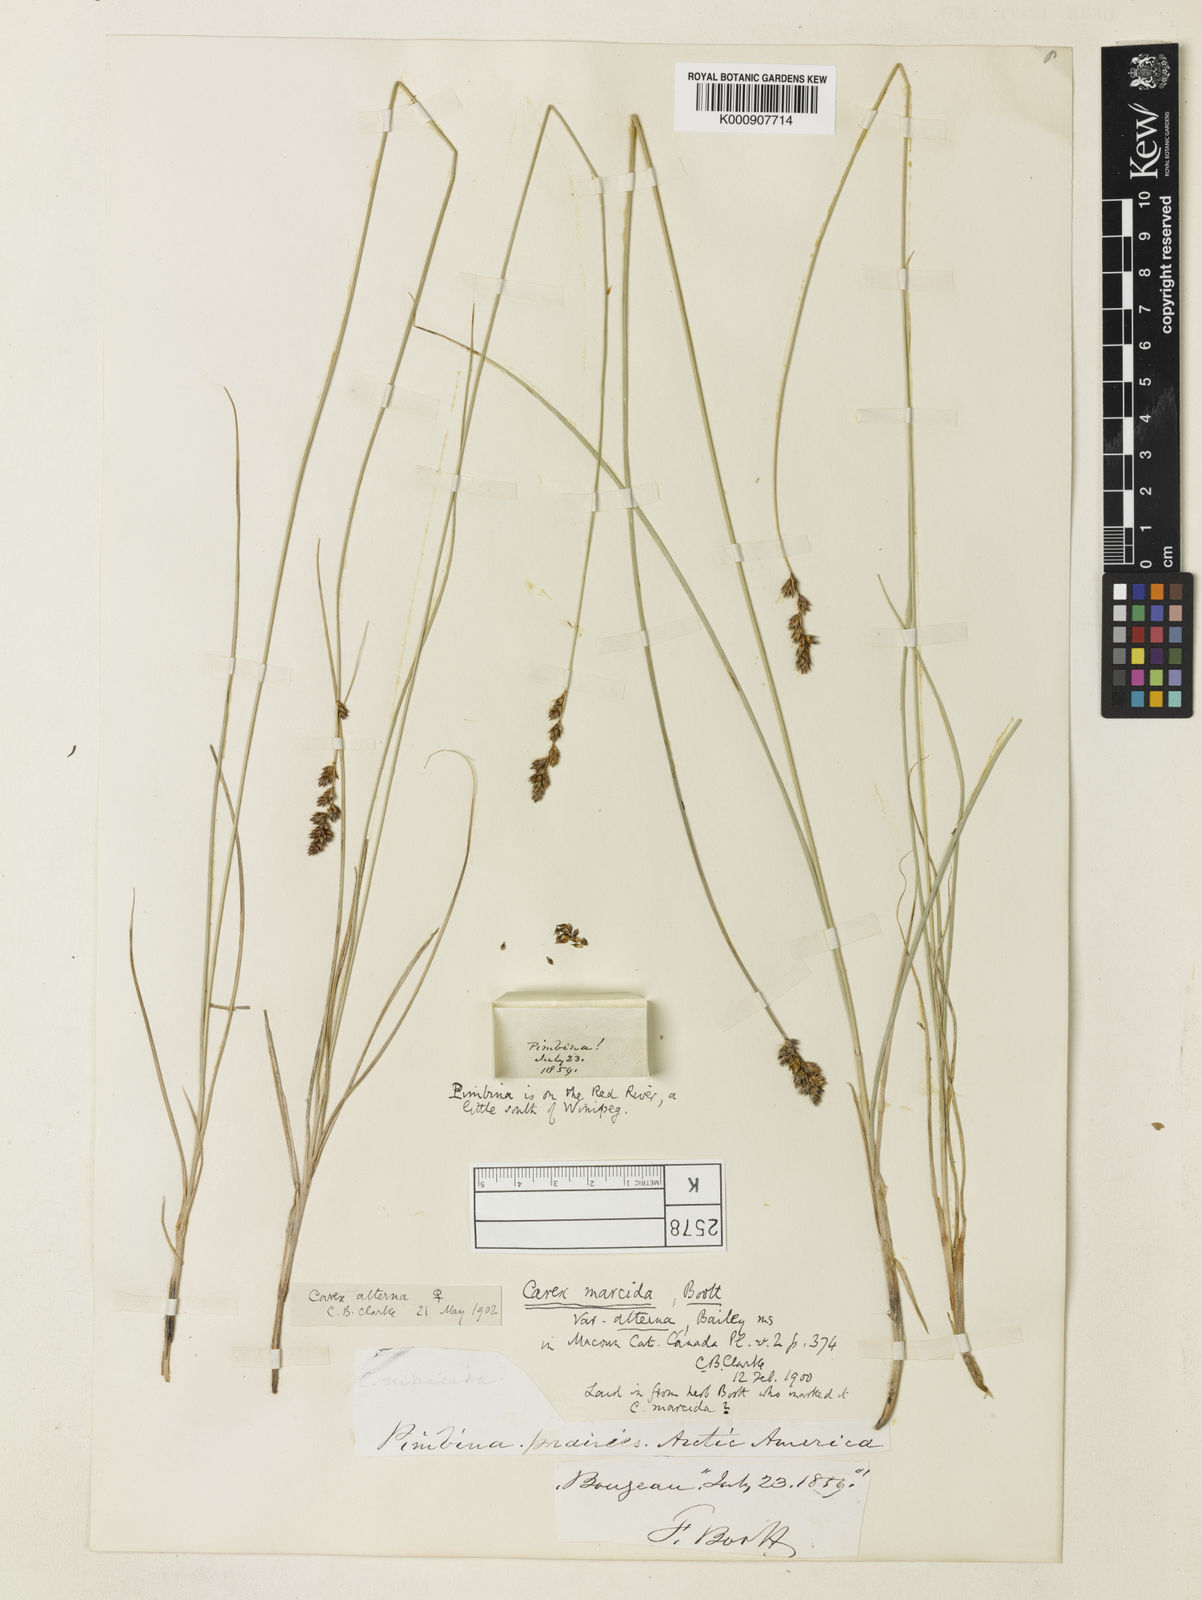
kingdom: Plantae
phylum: Tracheophyta
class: Liliopsida
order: Poales
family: Cyperaceae
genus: Carex
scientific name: Carex praegracilis
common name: Black creeper sedge
